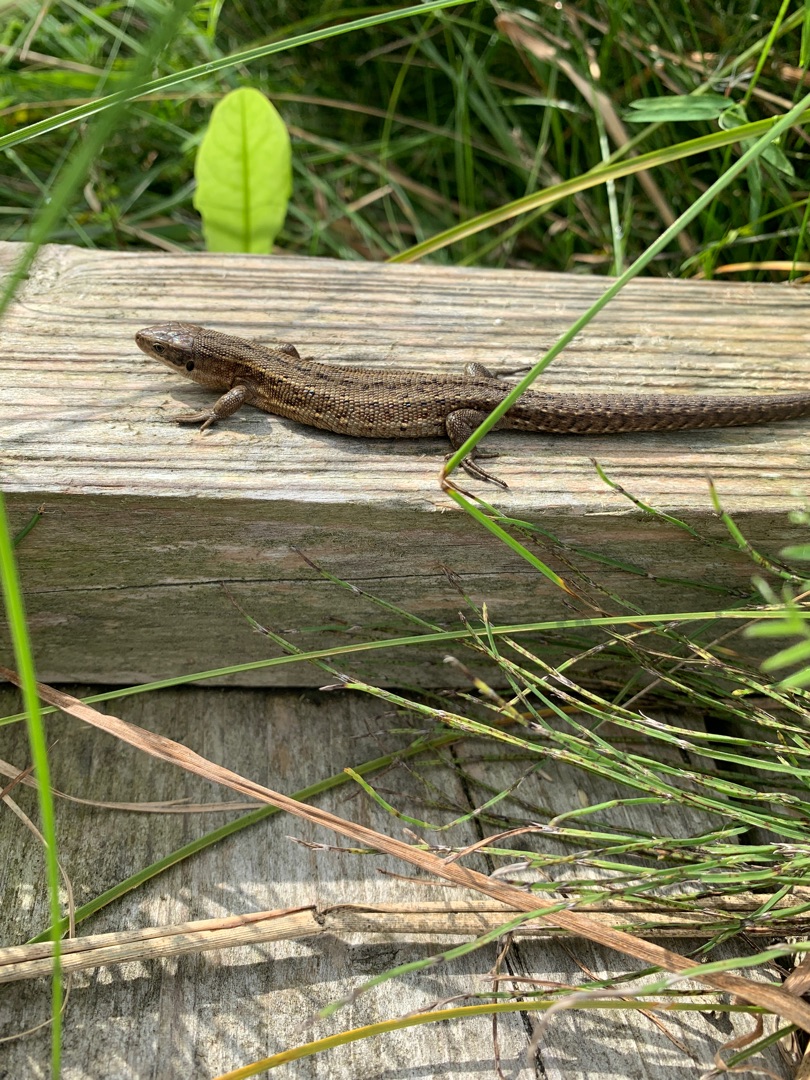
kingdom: Animalia
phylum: Chordata
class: Squamata
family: Lacertidae
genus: Zootoca
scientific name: Zootoca vivipara
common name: Skovfirben
